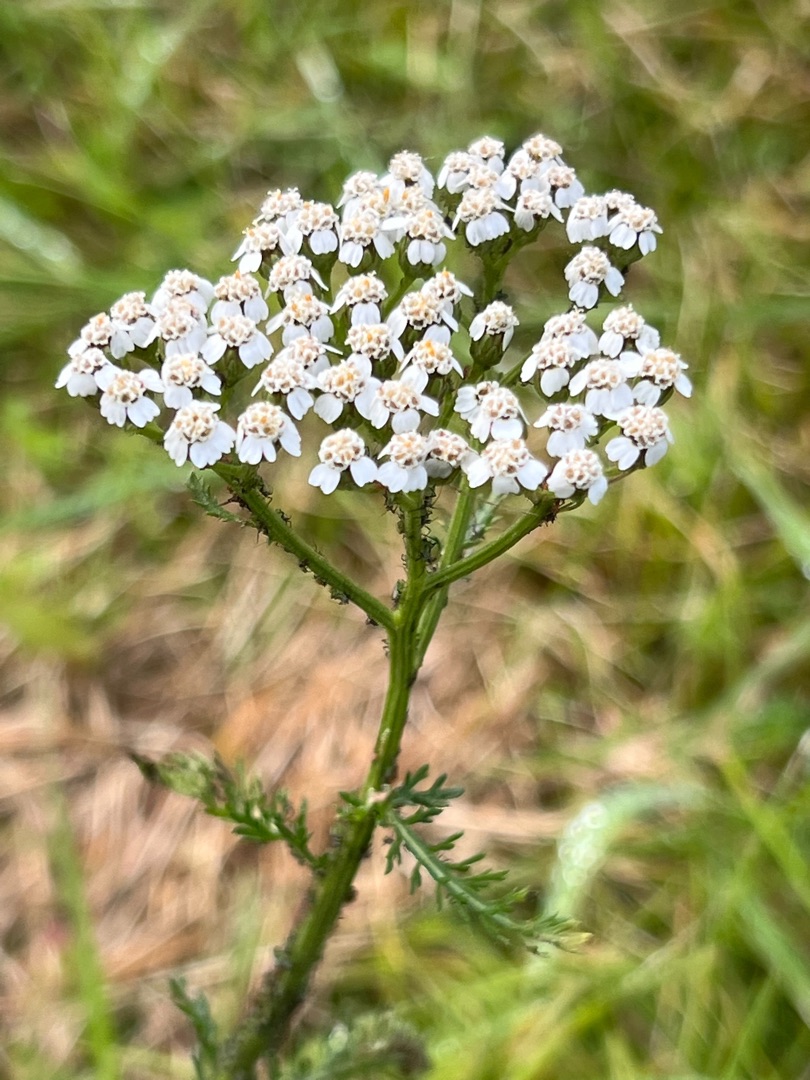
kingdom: Plantae
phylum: Tracheophyta
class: Magnoliopsida
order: Asterales
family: Asteraceae
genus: Achillea
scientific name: Achillea millefolium
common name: Almindelig røllike
